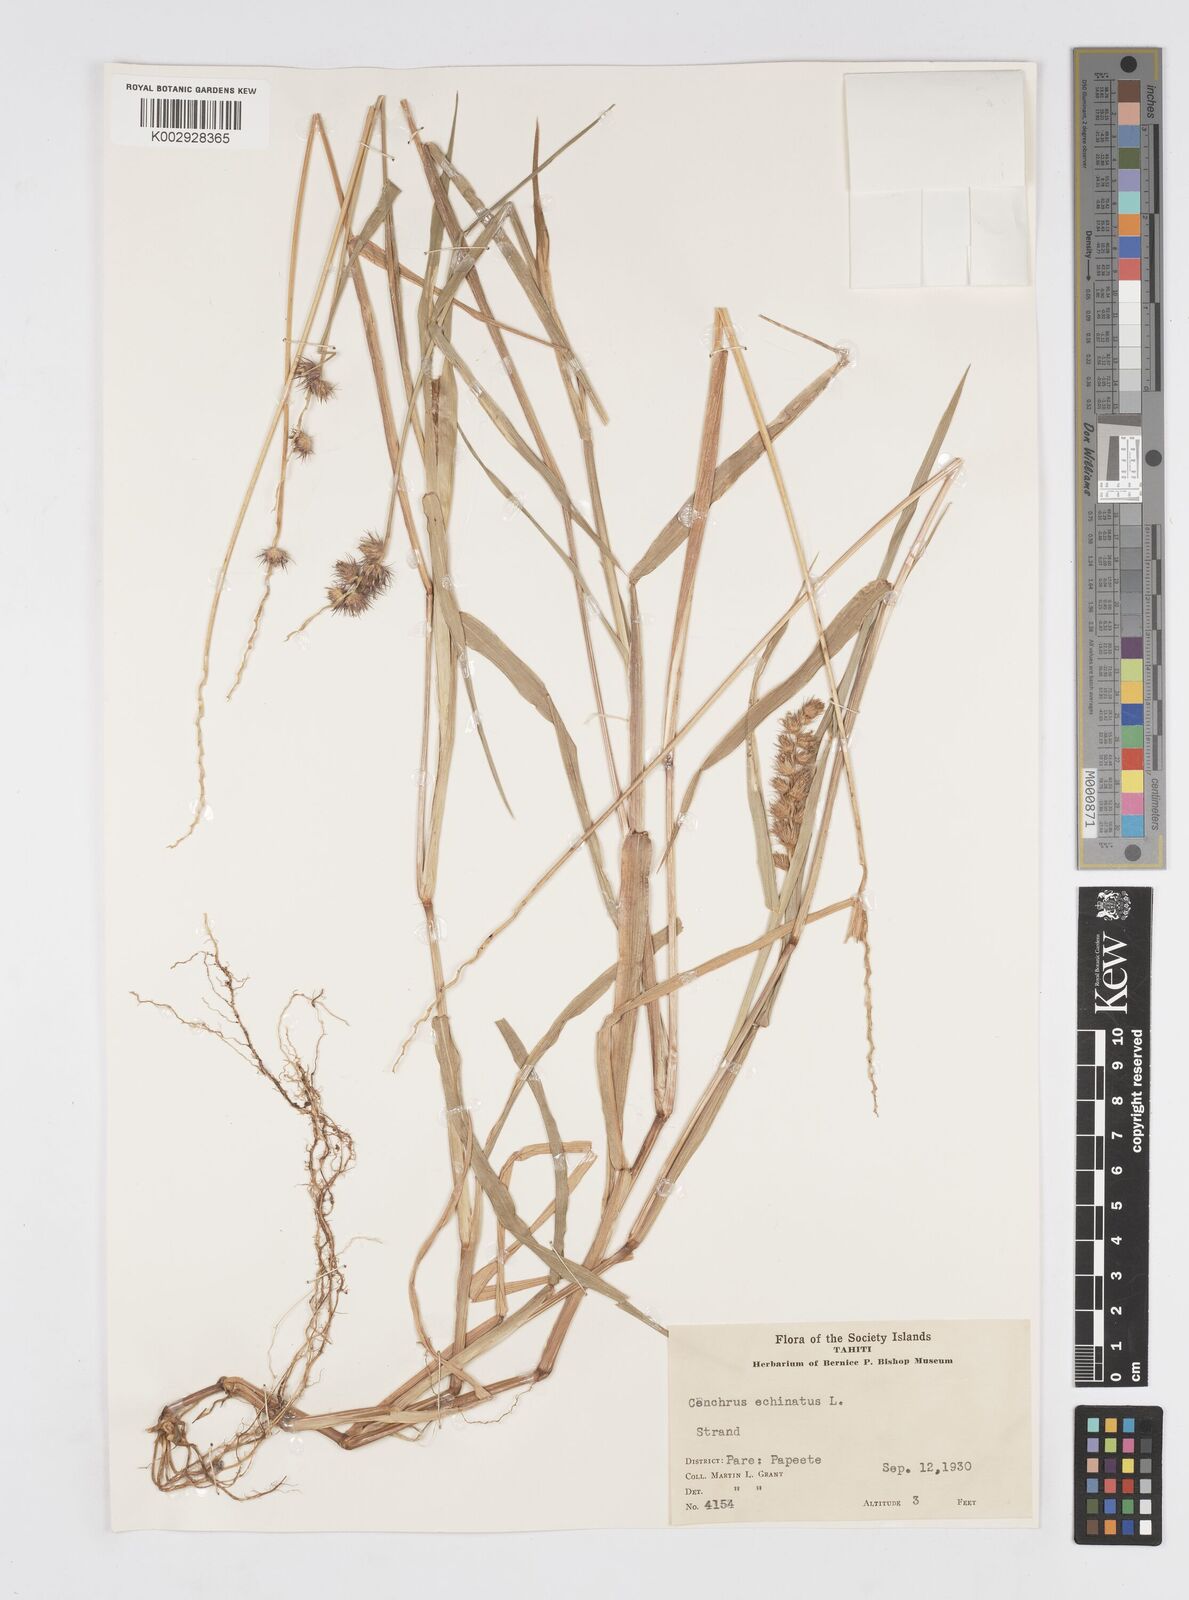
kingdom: Plantae
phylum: Tracheophyta
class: Liliopsida
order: Poales
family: Poaceae
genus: Cenchrus
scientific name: Cenchrus echinatus
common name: Southern sandbur
